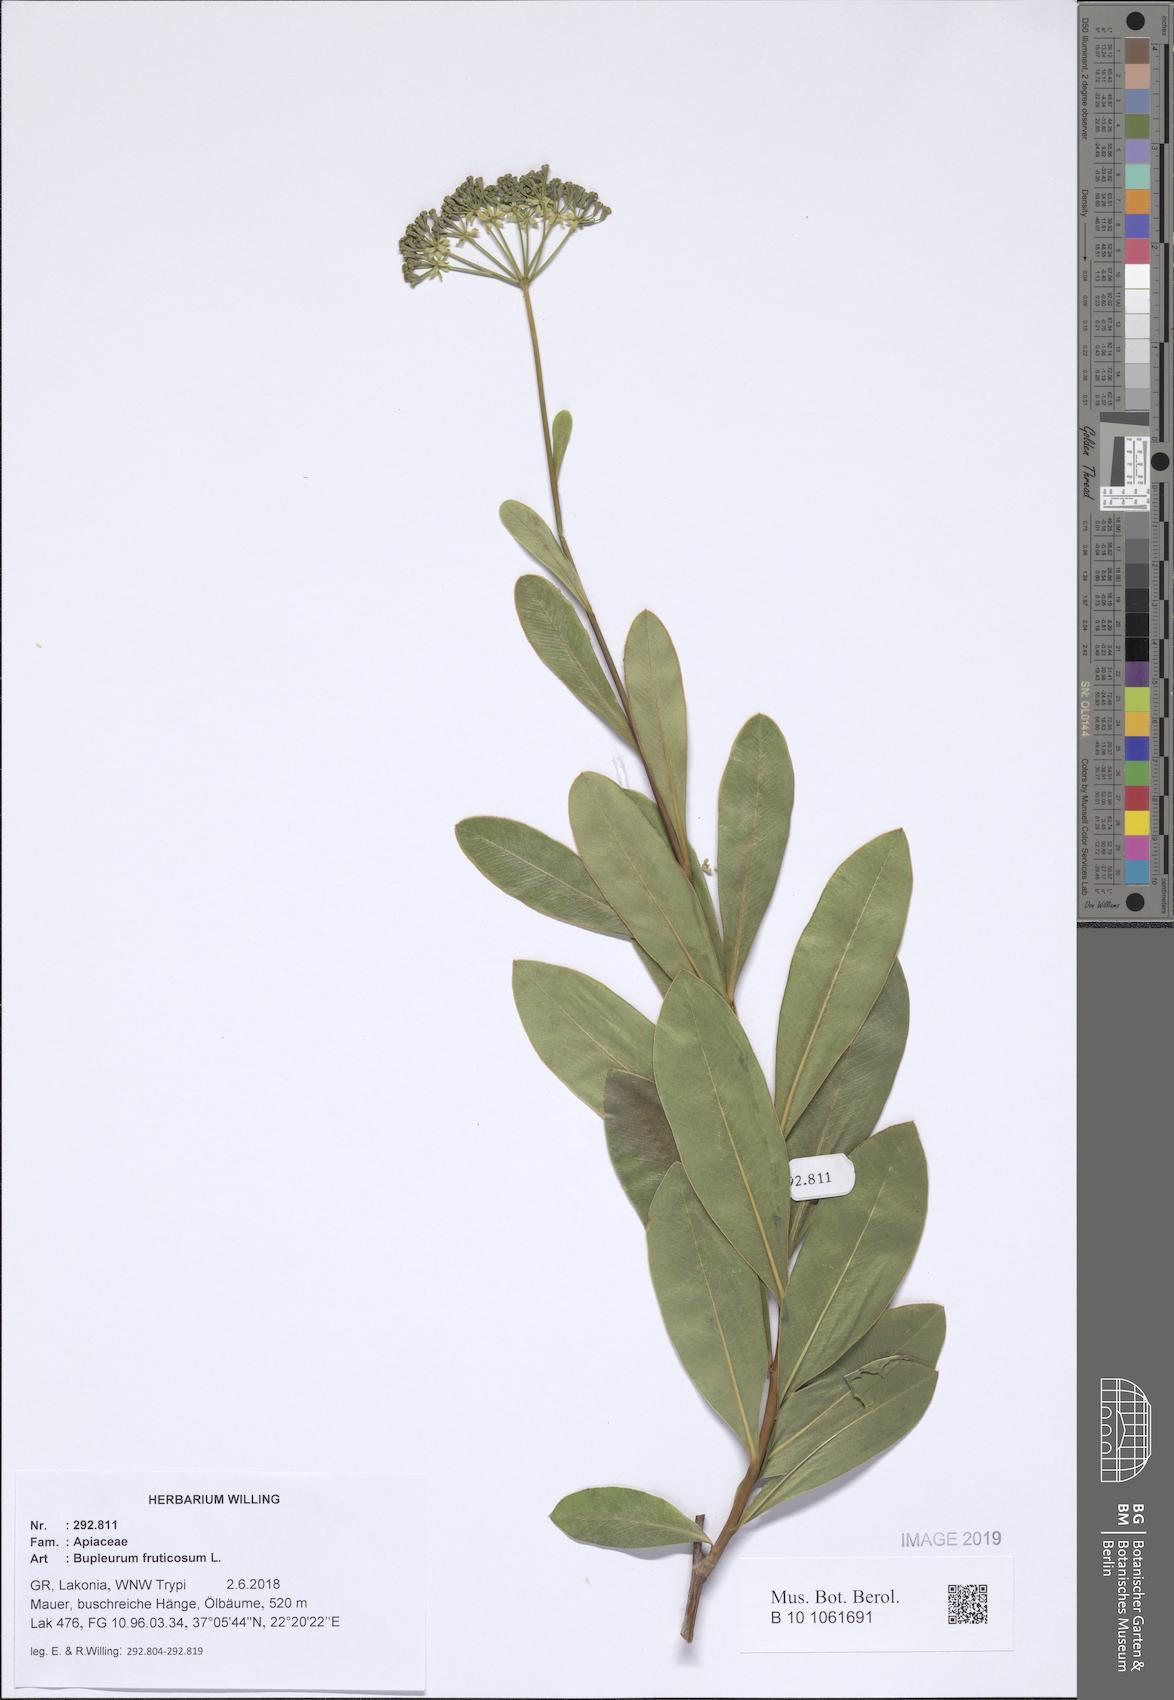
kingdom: Plantae
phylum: Tracheophyta
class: Magnoliopsida
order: Apiales
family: Apiaceae
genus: Bupleurum
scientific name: Bupleurum fruticosum
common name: Shrubby hare's-ear
